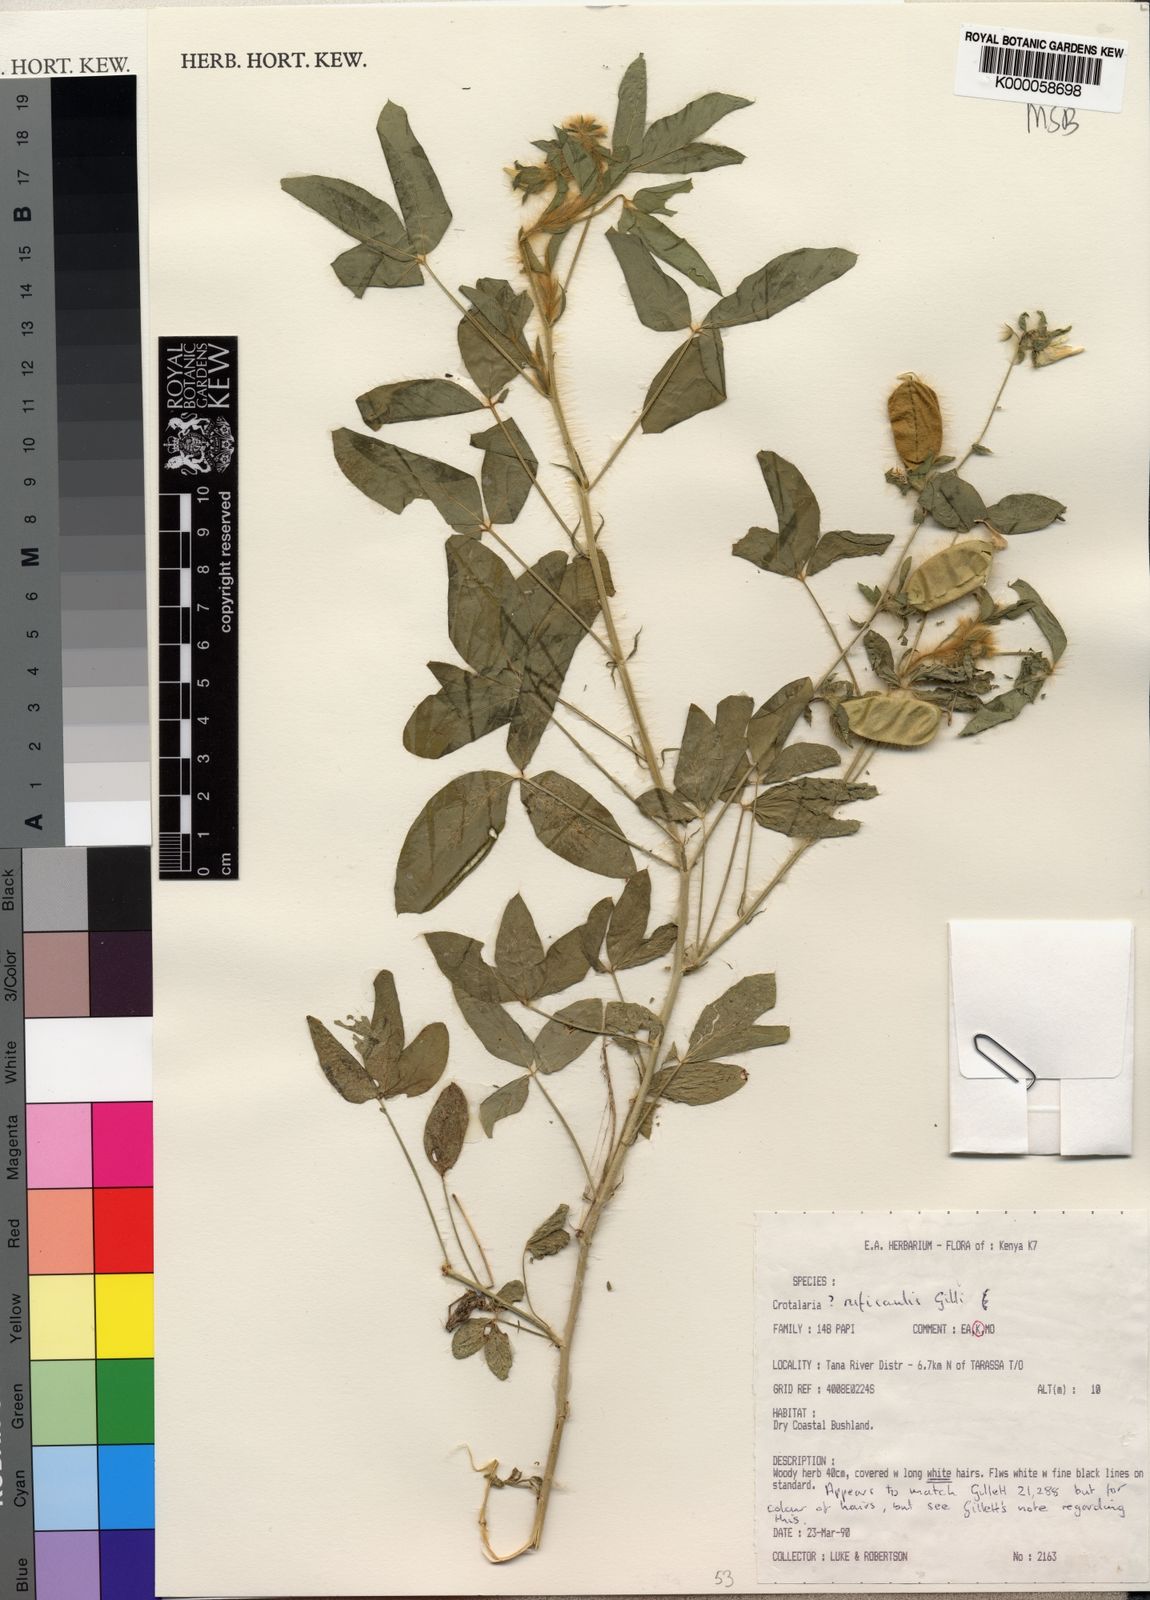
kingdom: Plantae
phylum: Tracheophyta
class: Magnoliopsida
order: Fabales
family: Fabaceae
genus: Crotalaria
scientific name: Crotalaria rufocaulis
